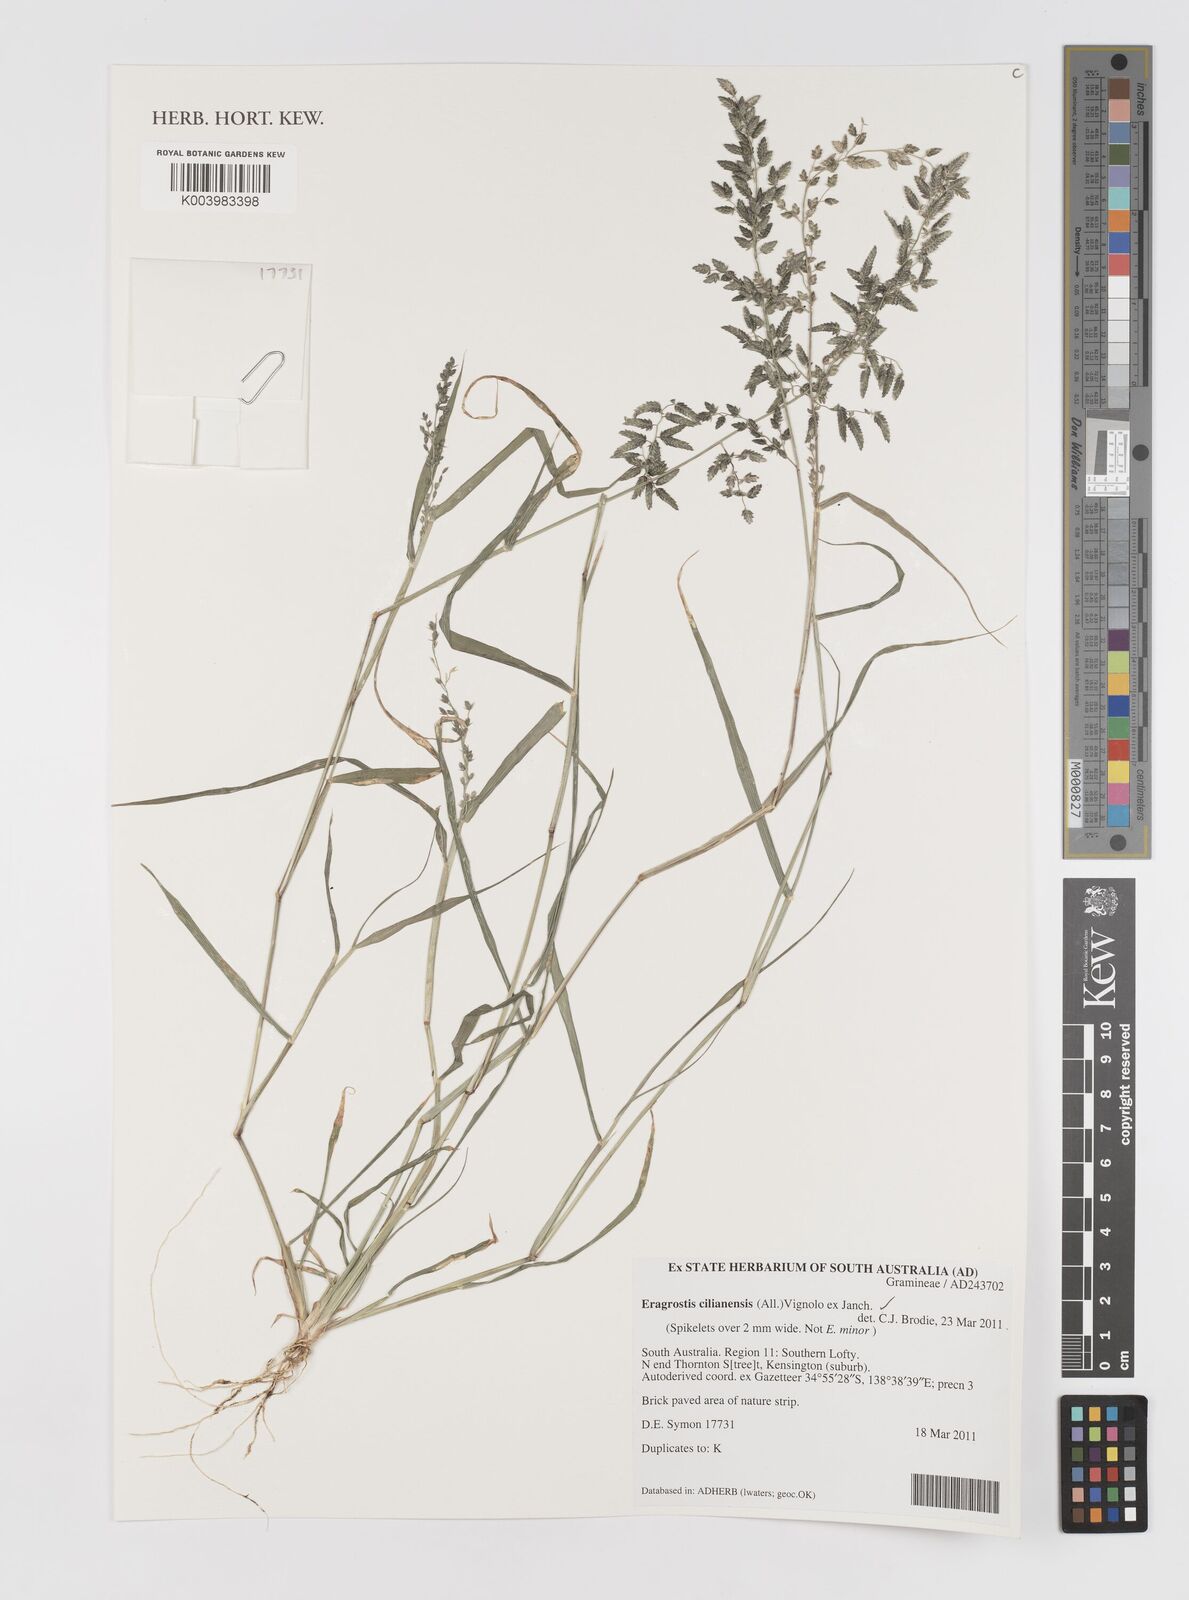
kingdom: Plantae
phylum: Tracheophyta
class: Liliopsida
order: Poales
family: Poaceae
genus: Eragrostis
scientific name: Eragrostis cilianensis
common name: Stinkgrass
